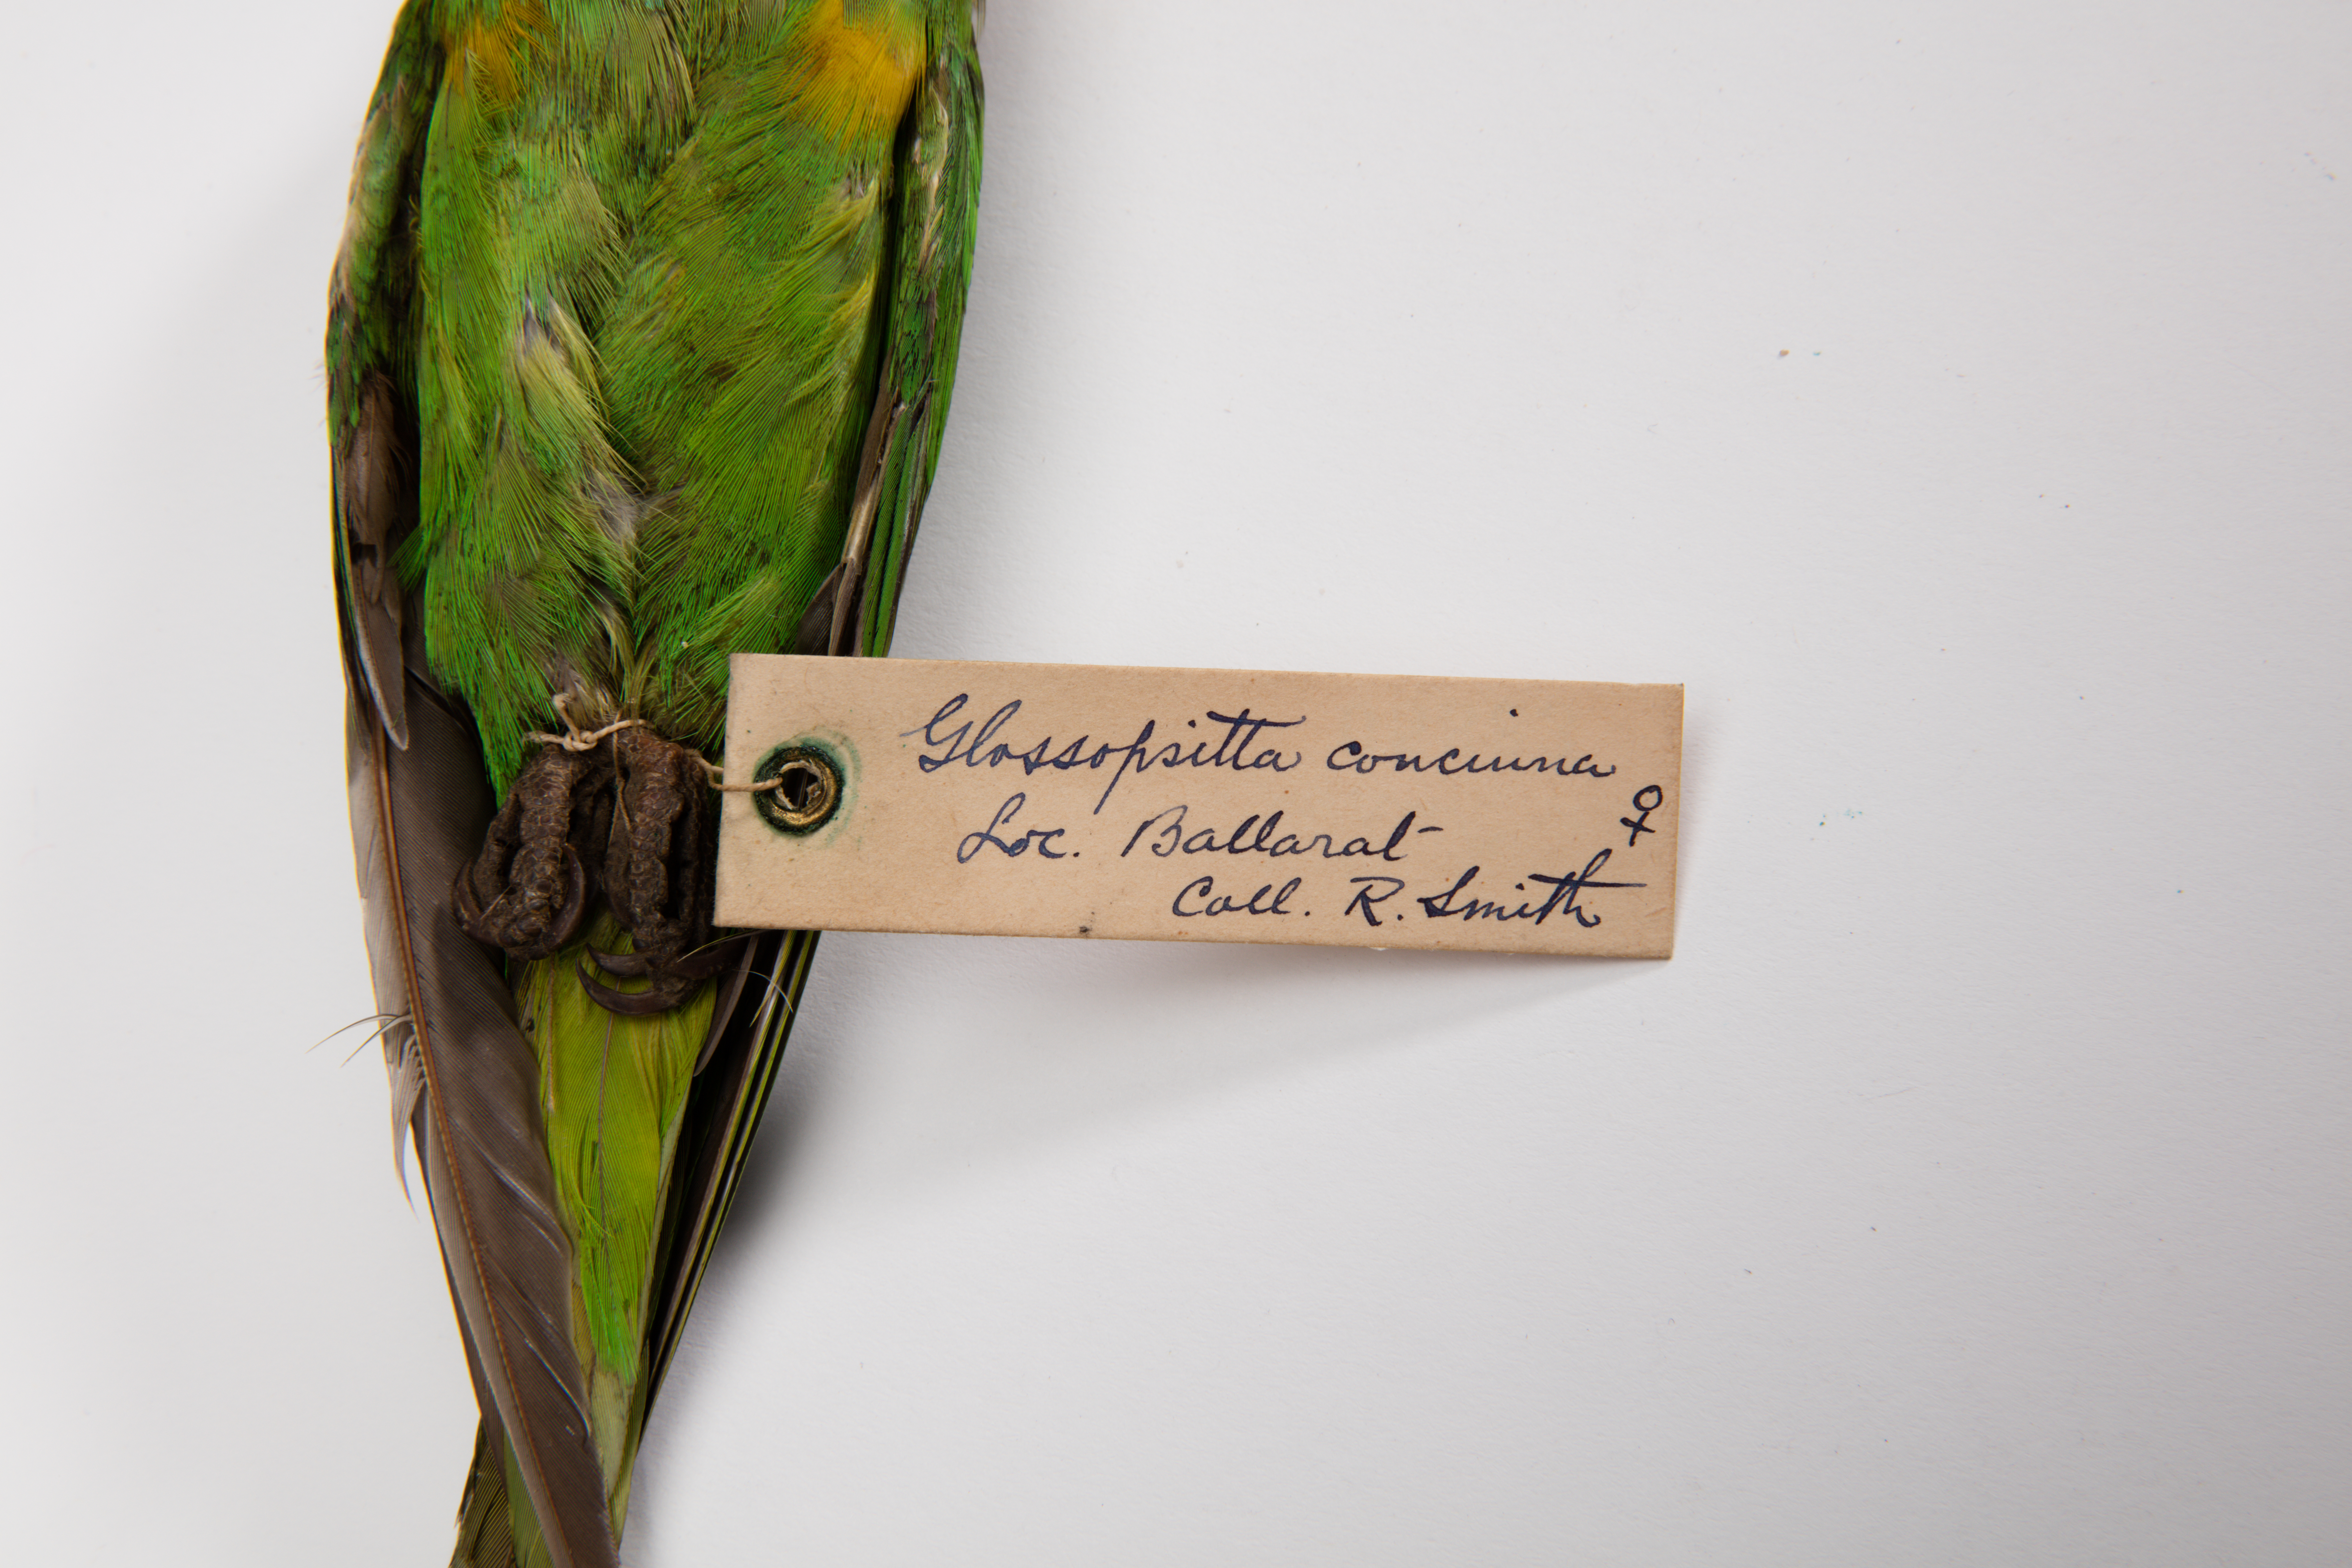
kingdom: Animalia
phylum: Chordata
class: Aves
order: Psittaciformes
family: Psittacidae
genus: Glossopsitta
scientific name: Glossopsitta concinna
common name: Musk lorikeet
